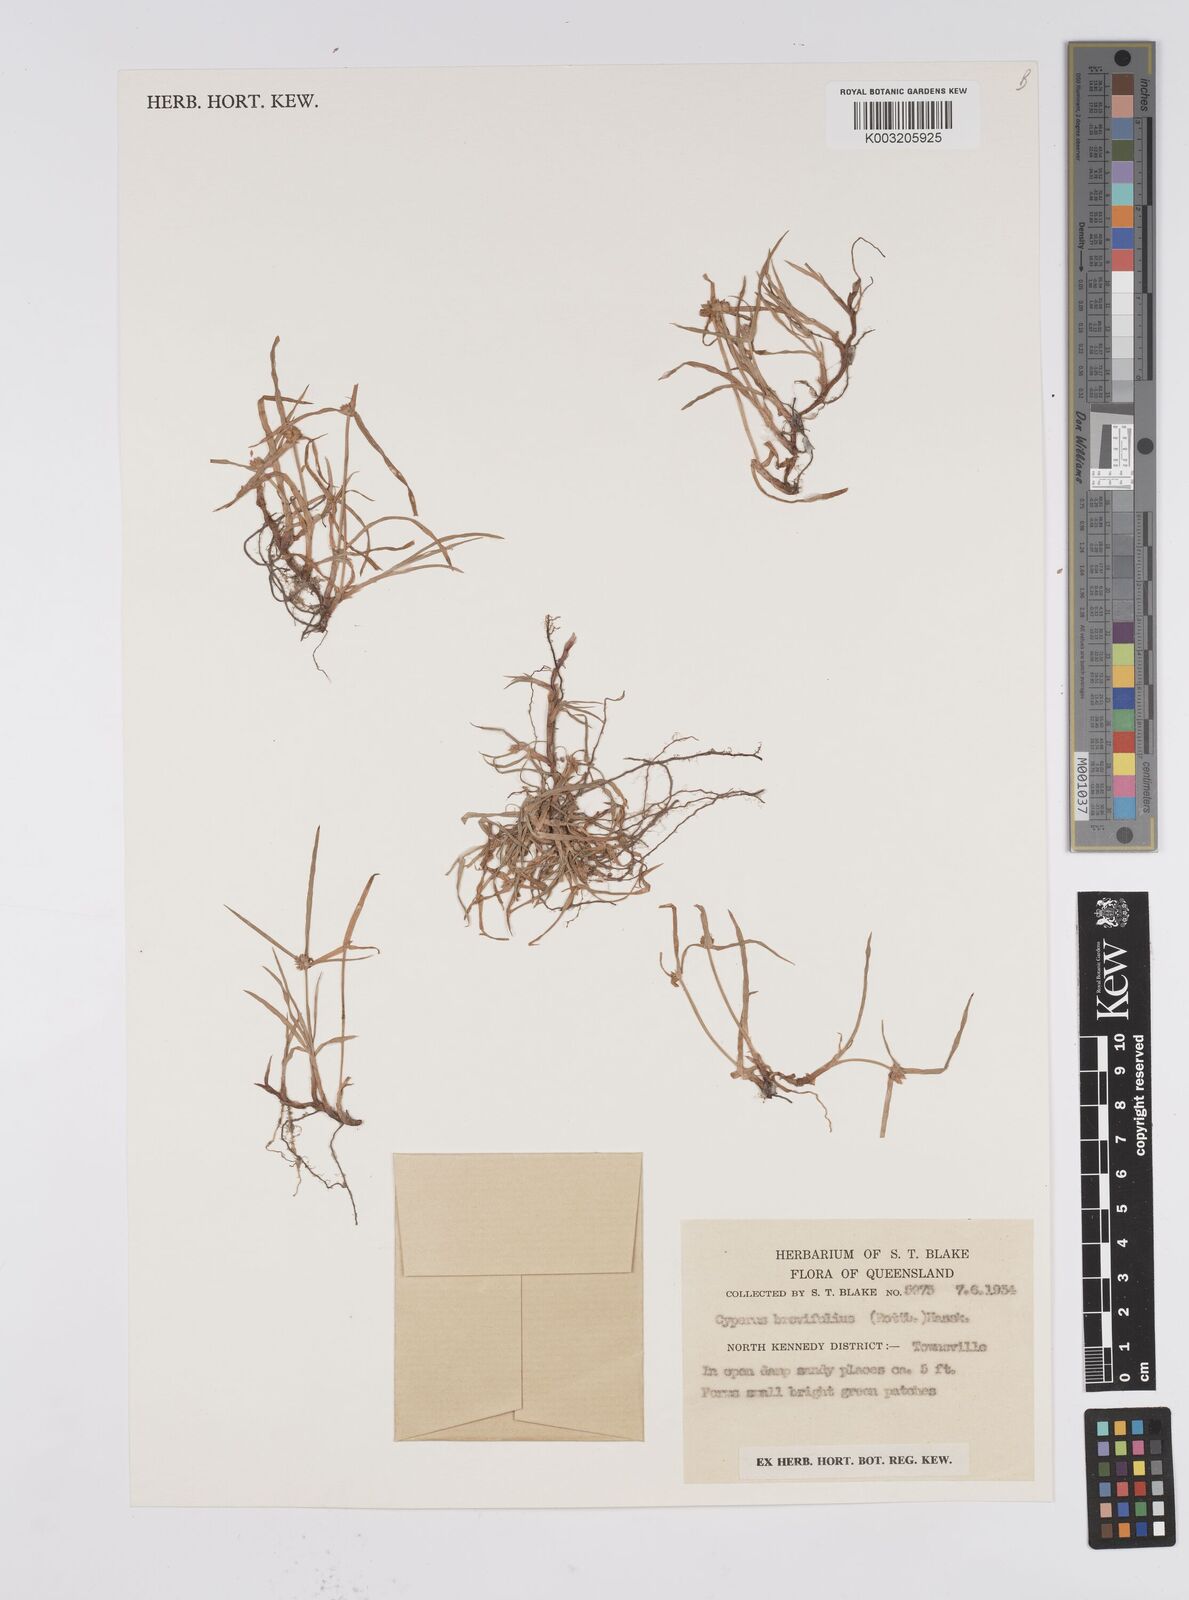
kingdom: Plantae
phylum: Tracheophyta
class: Liliopsida
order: Poales
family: Cyperaceae
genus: Cyperus
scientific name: Cyperus brevifolius
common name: Globe kyllinga
